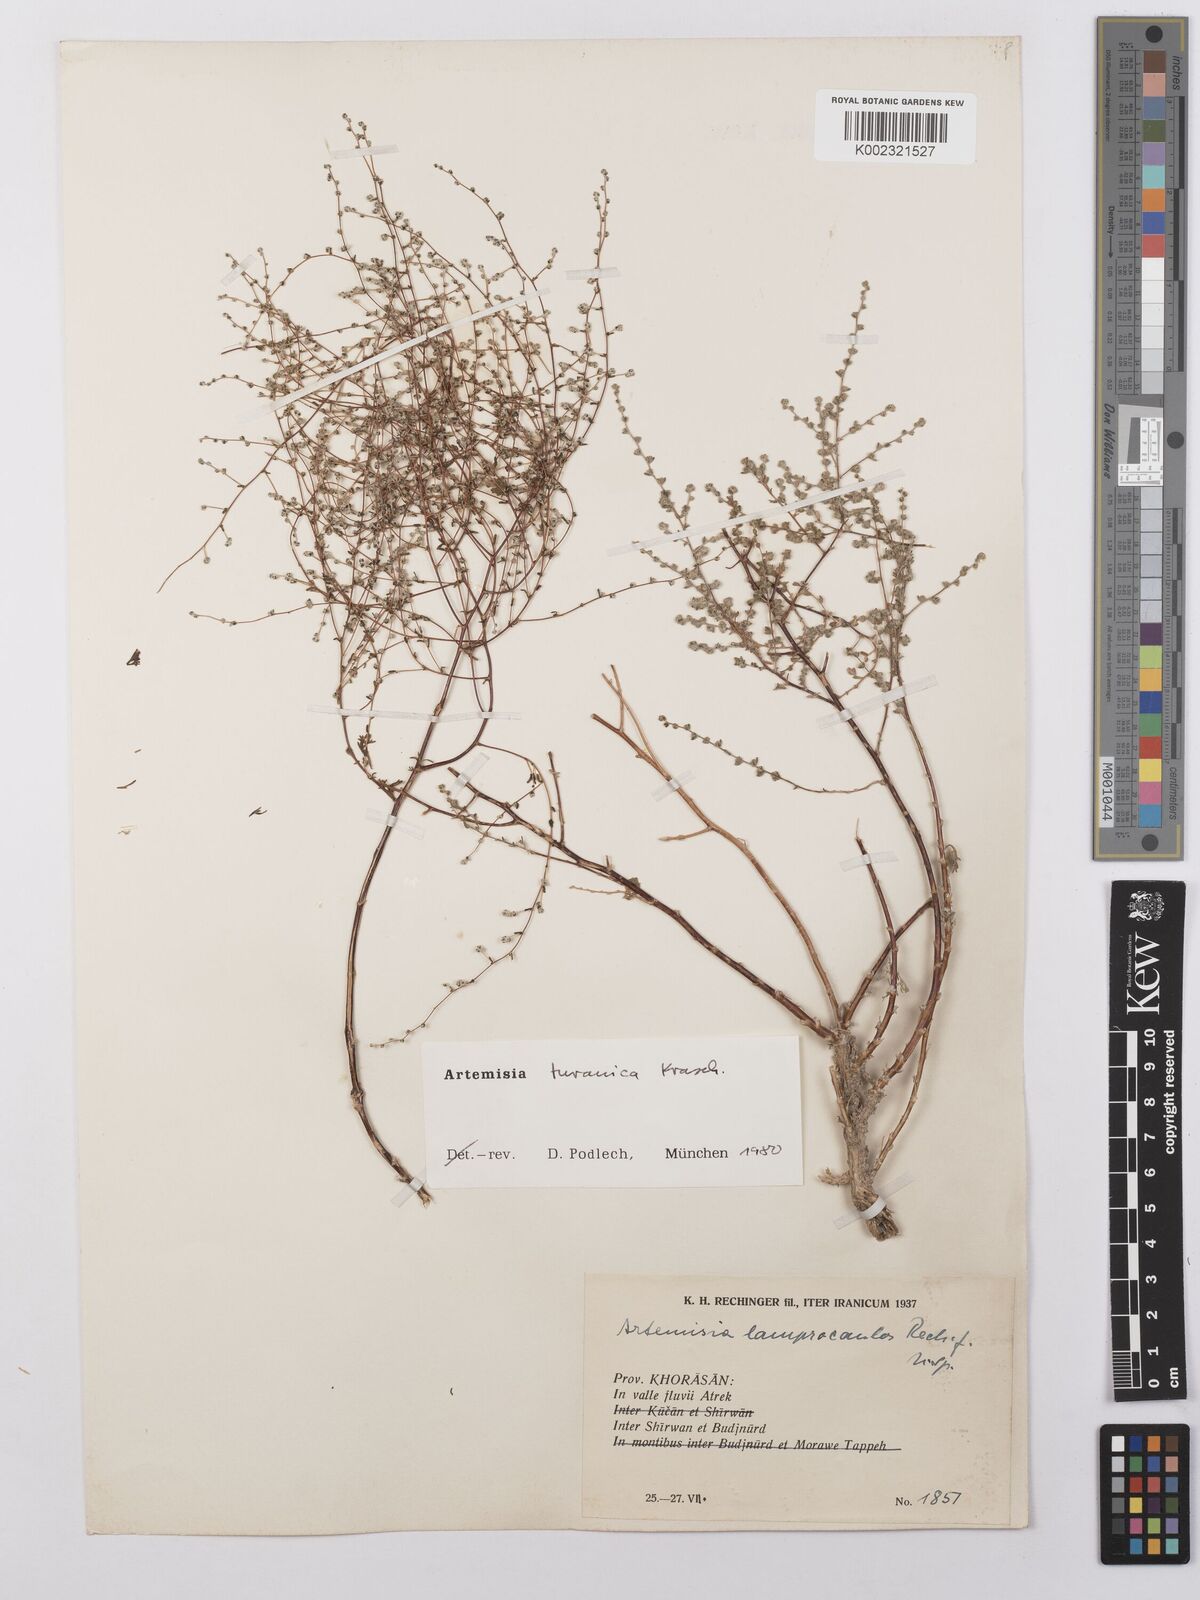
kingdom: Plantae
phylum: Tracheophyta
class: Magnoliopsida
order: Asterales
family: Asteraceae
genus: Artemisia
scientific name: Artemisia turanica
